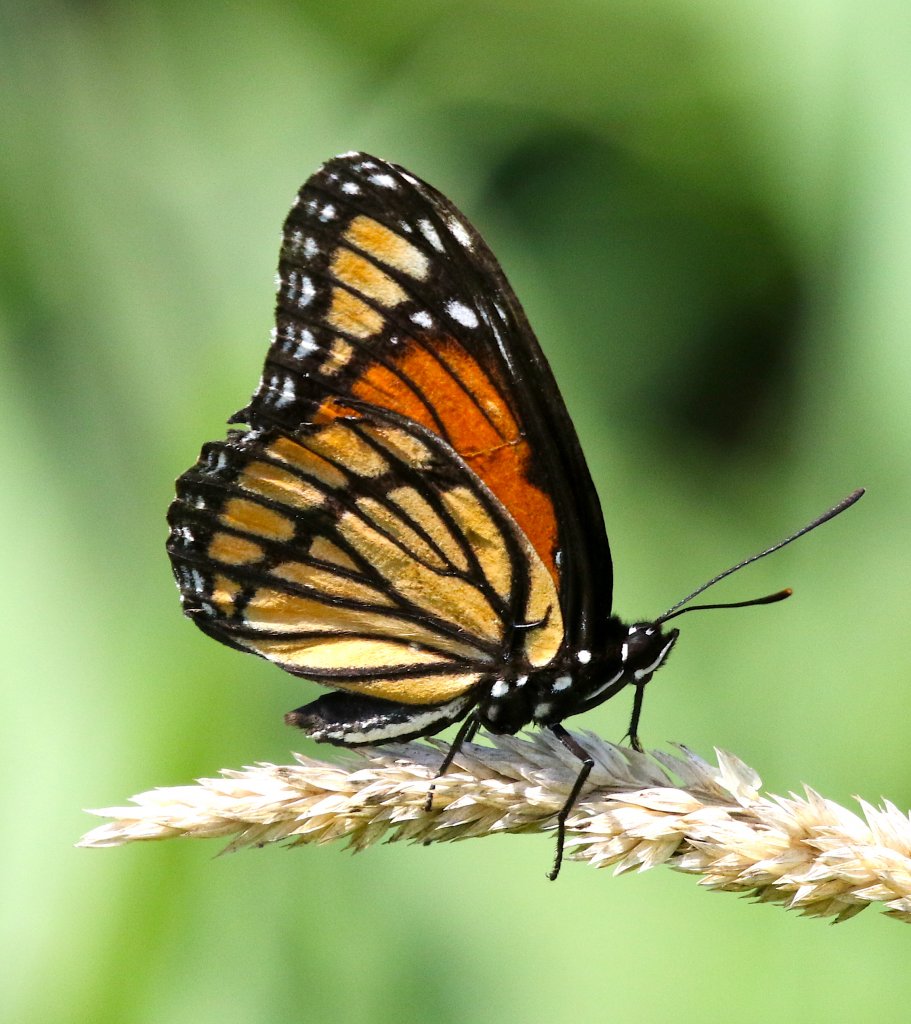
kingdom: Animalia
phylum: Arthropoda
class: Insecta
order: Lepidoptera
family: Nymphalidae
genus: Limenitis
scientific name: Limenitis archippus
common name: Viceroy
